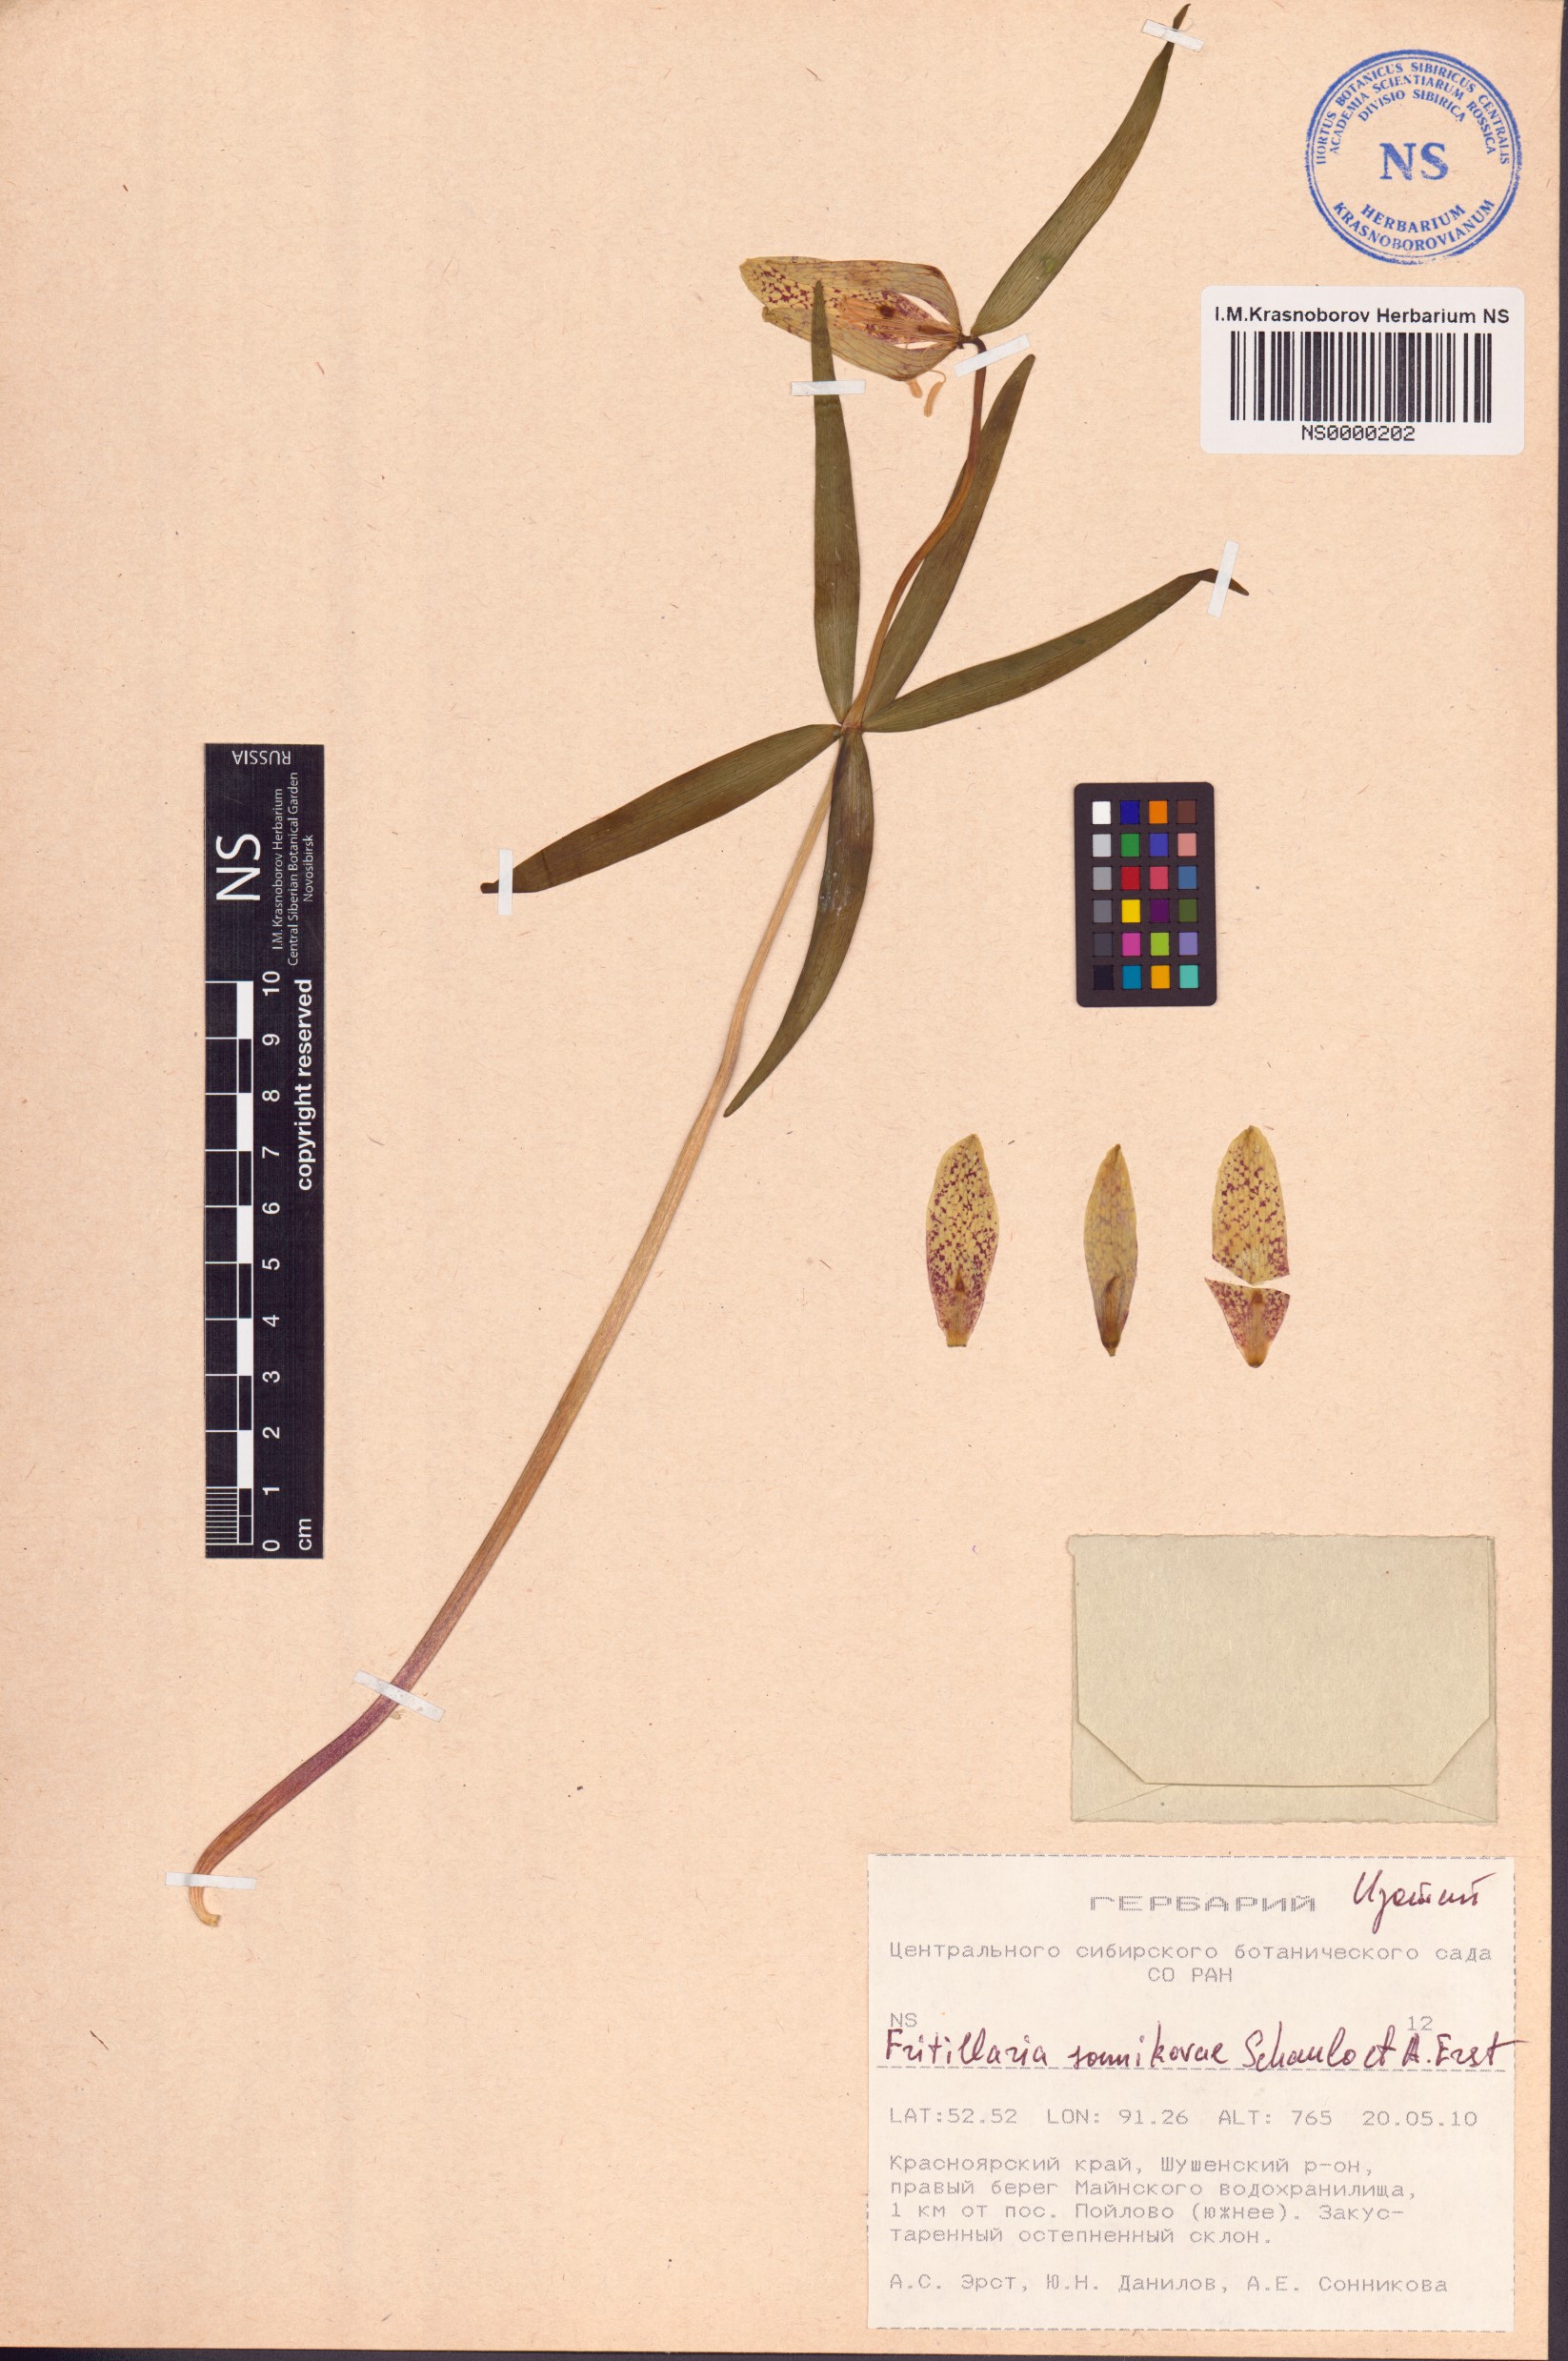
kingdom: Plantae
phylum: Tracheophyta
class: Liliopsida
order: Liliales
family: Liliaceae
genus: Fritillaria
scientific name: Fritillaria sonnikovae
